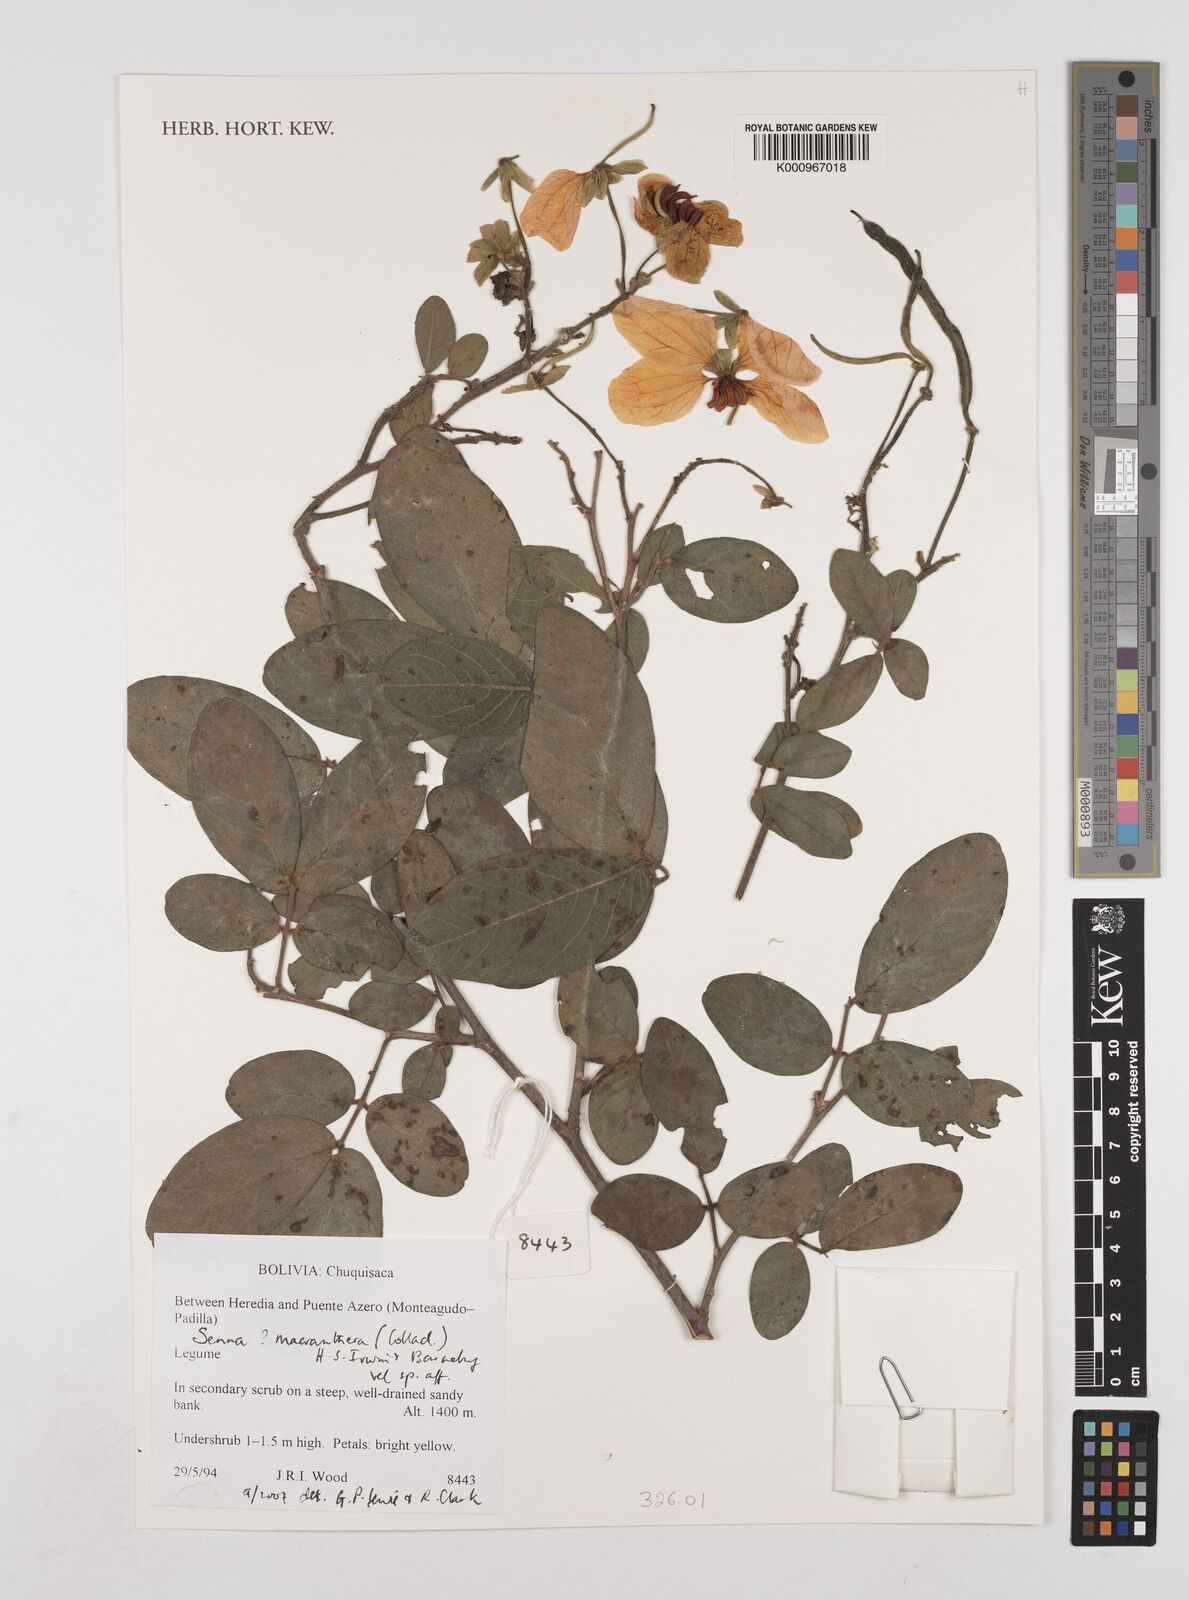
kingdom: Plantae
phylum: Tracheophyta
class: Magnoliopsida
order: Fabales
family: Fabaceae
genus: Senna
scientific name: Senna macranthera
